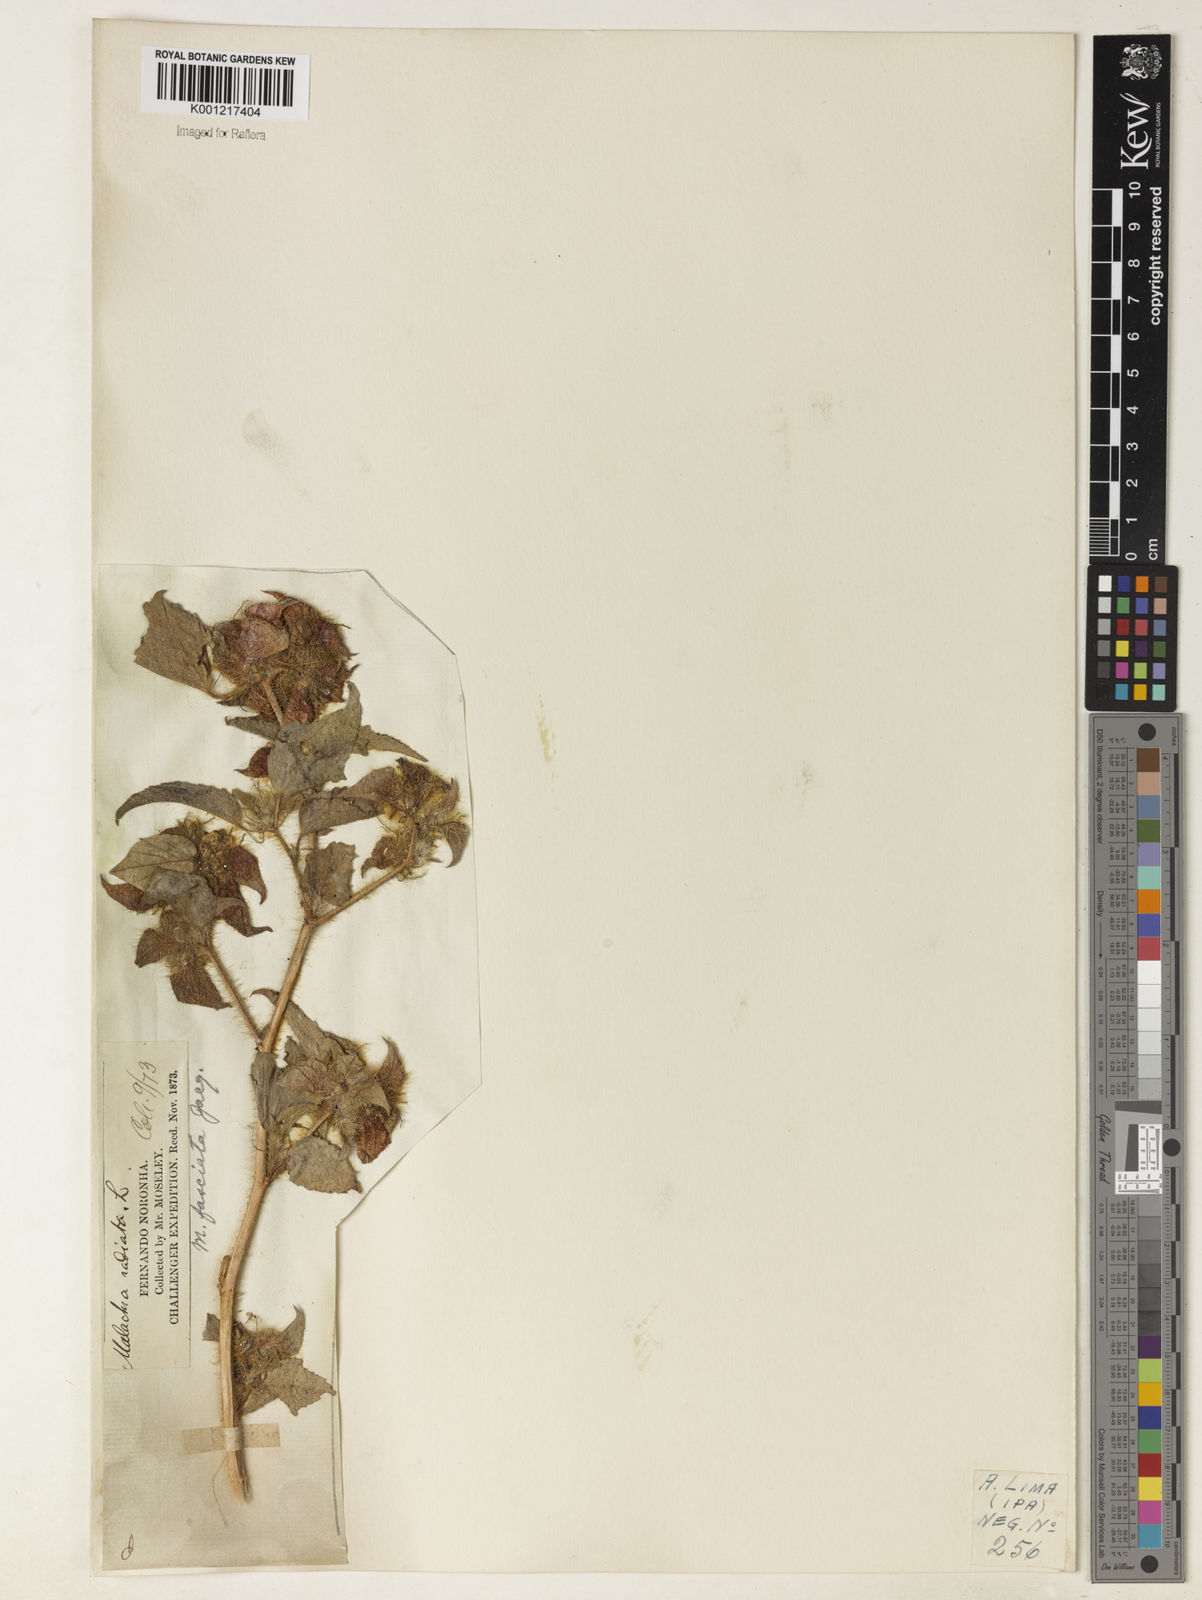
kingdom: Plantae
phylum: Tracheophyta
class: Magnoliopsida
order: Malvales
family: Malvaceae
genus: Malachra
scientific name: Malachra fasciata
